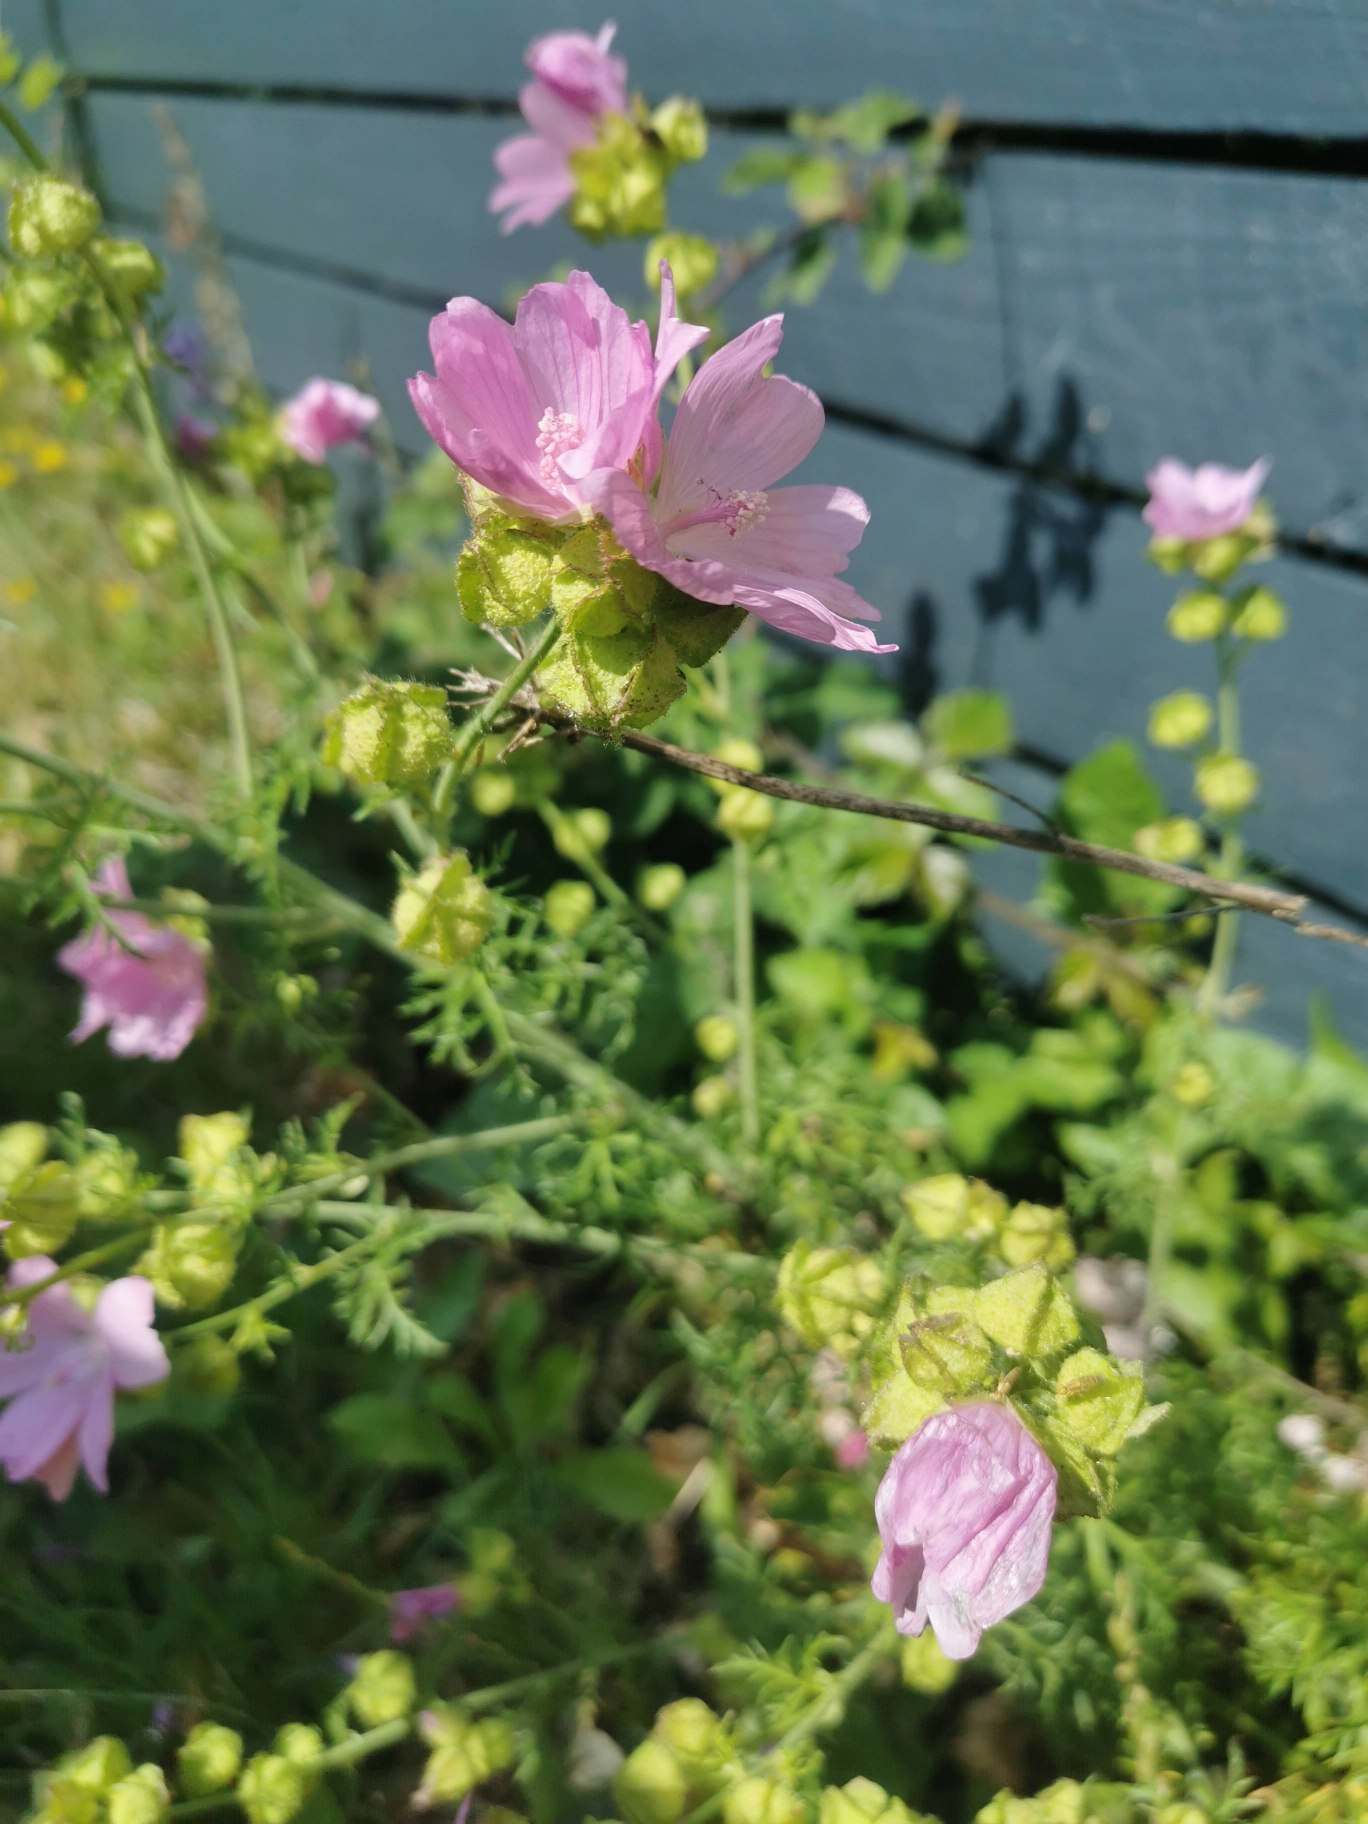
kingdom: Plantae
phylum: Tracheophyta
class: Magnoliopsida
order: Malvales
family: Malvaceae
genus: Malva
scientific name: Malva moschata
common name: Moskus-katost
